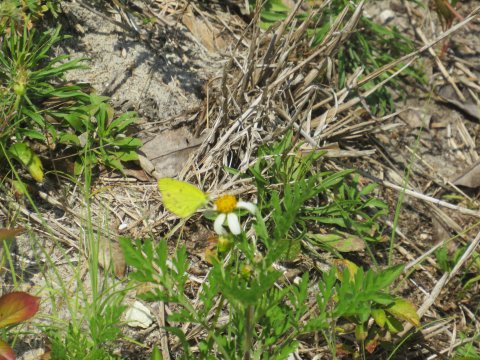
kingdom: Animalia
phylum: Arthropoda
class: Insecta
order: Lepidoptera
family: Pieridae
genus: Pyrisitia
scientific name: Pyrisitia lisa
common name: Little Yellow
